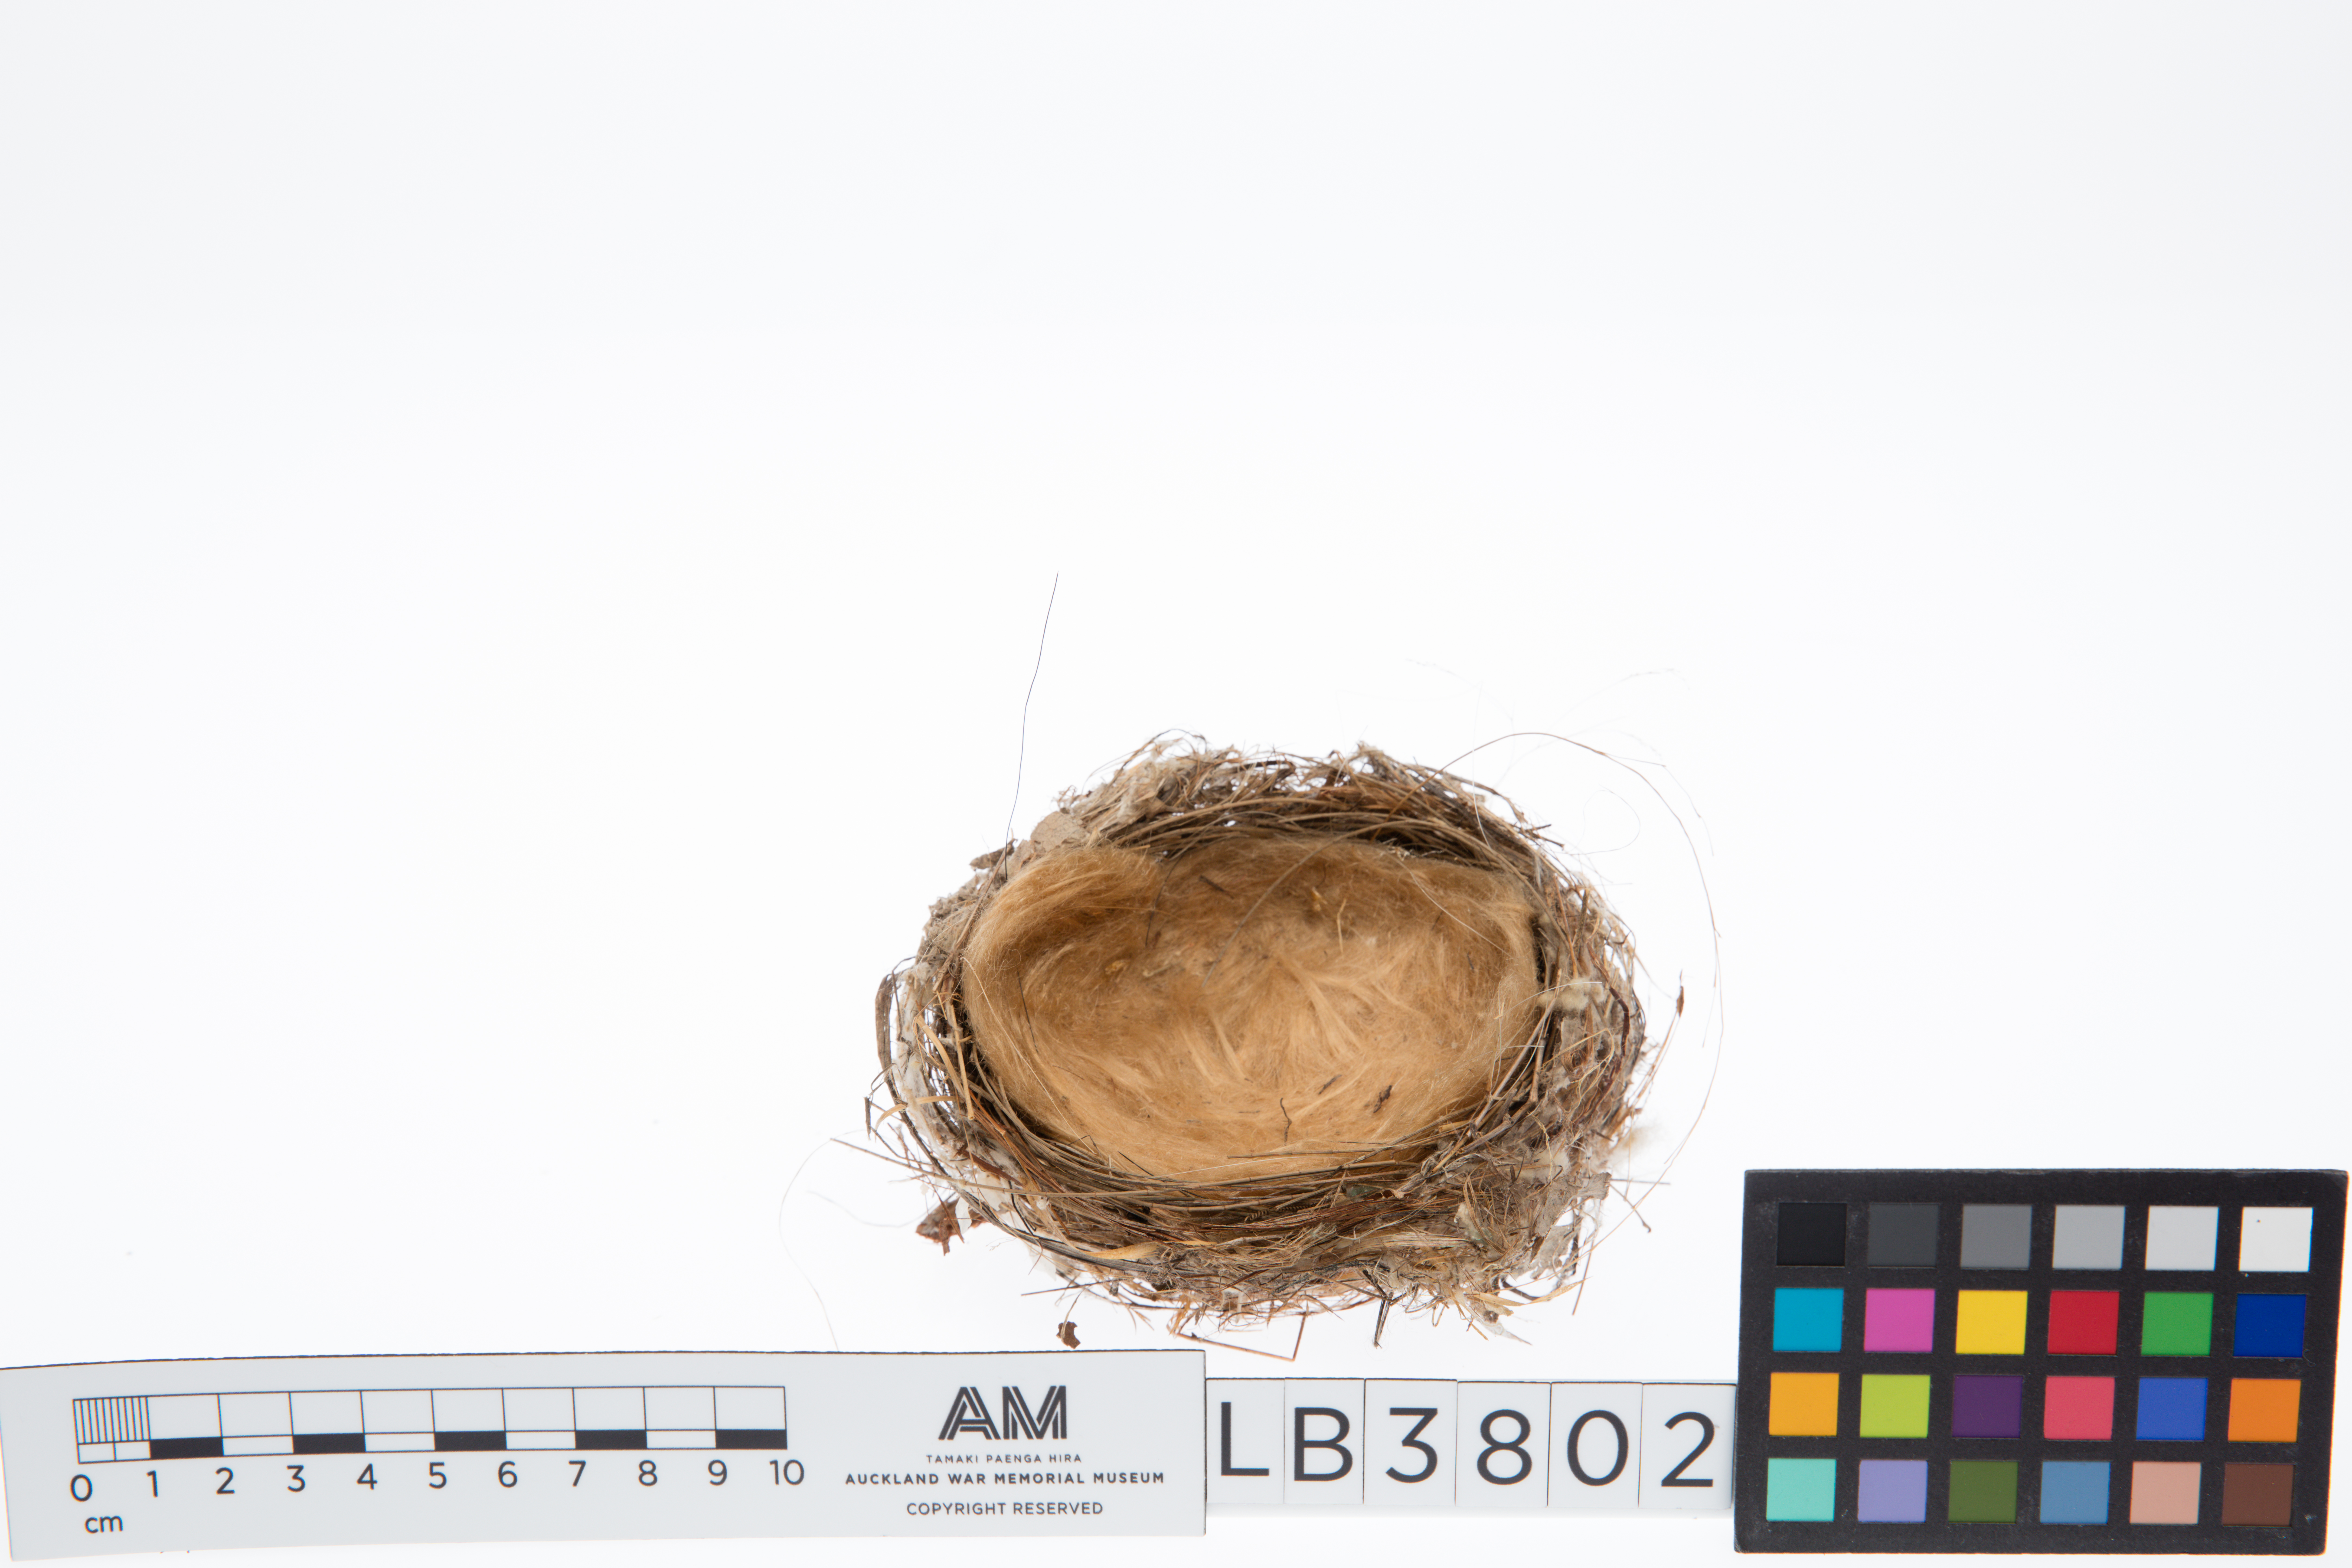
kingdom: Animalia
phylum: Chordata
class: Aves
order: Passeriformes
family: Meliphagidae
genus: Meliphaga
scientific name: Meliphaga lewinii
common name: Lewin's honeyeater
